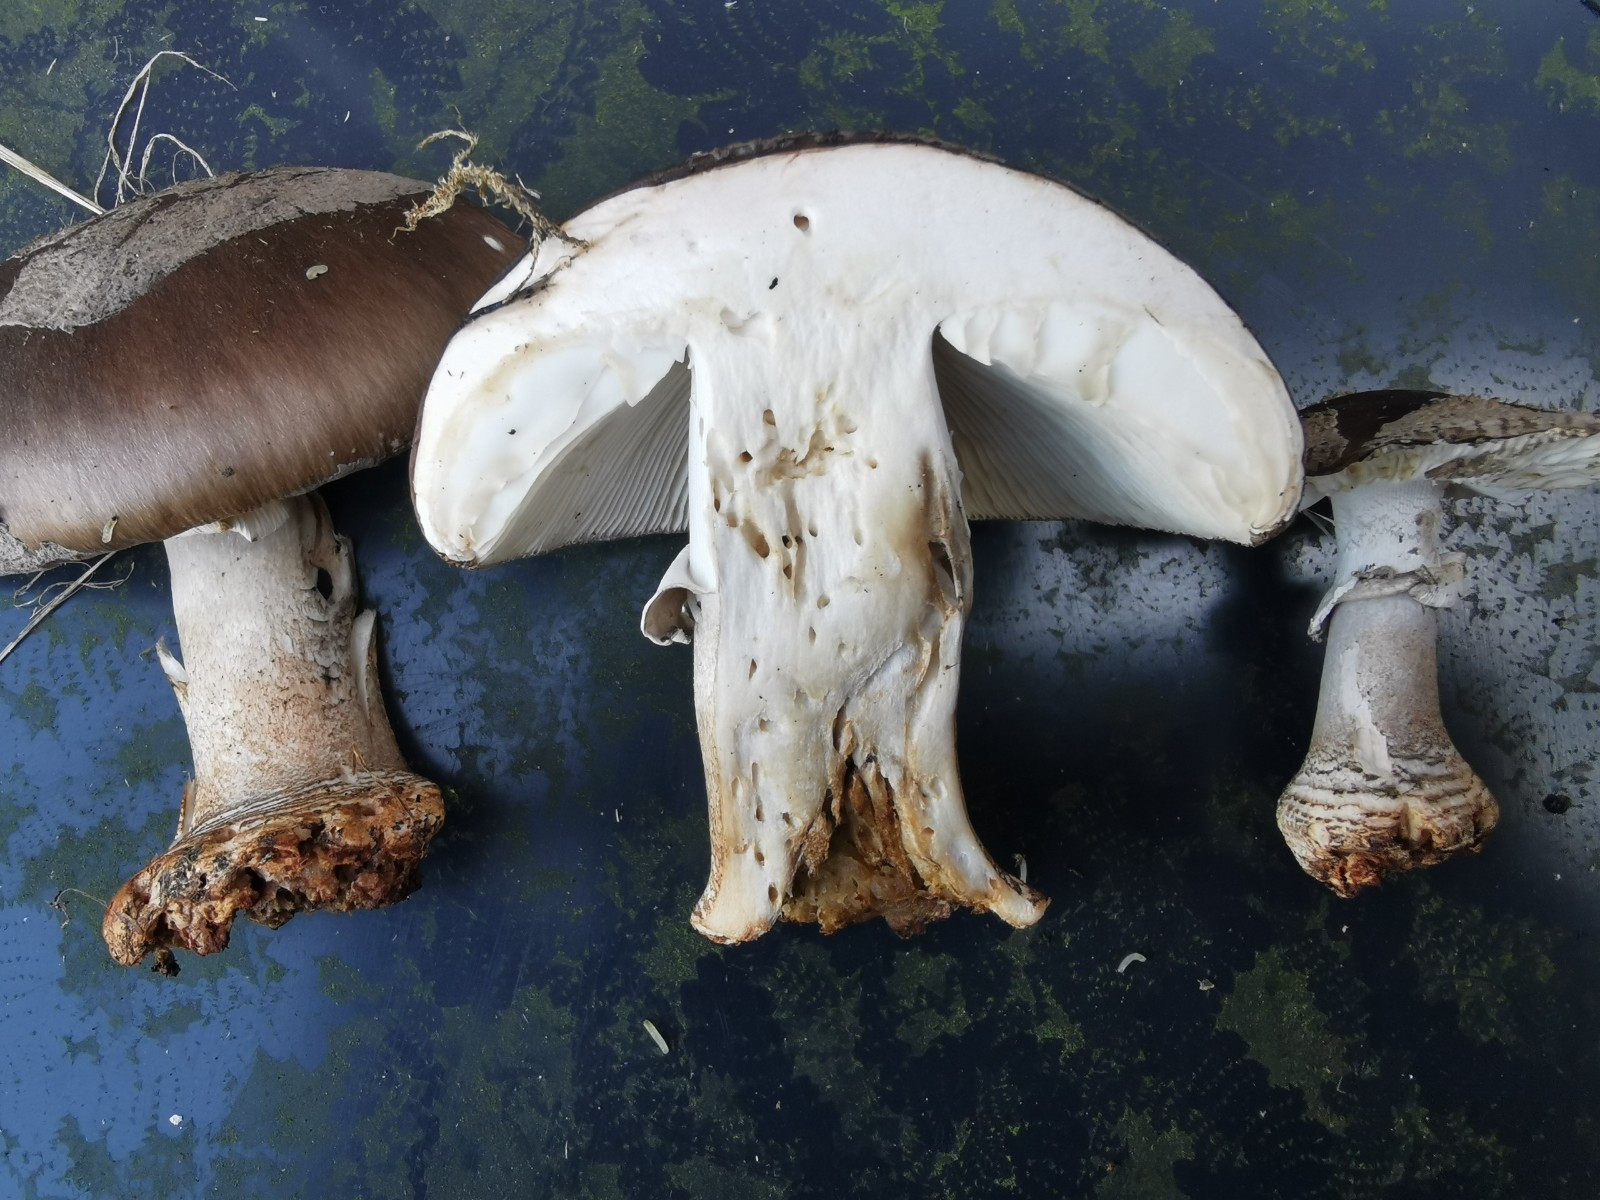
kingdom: Fungi
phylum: Basidiomycota
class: Agaricomycetes
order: Agaricales
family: Amanitaceae
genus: Amanita
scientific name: Amanita
